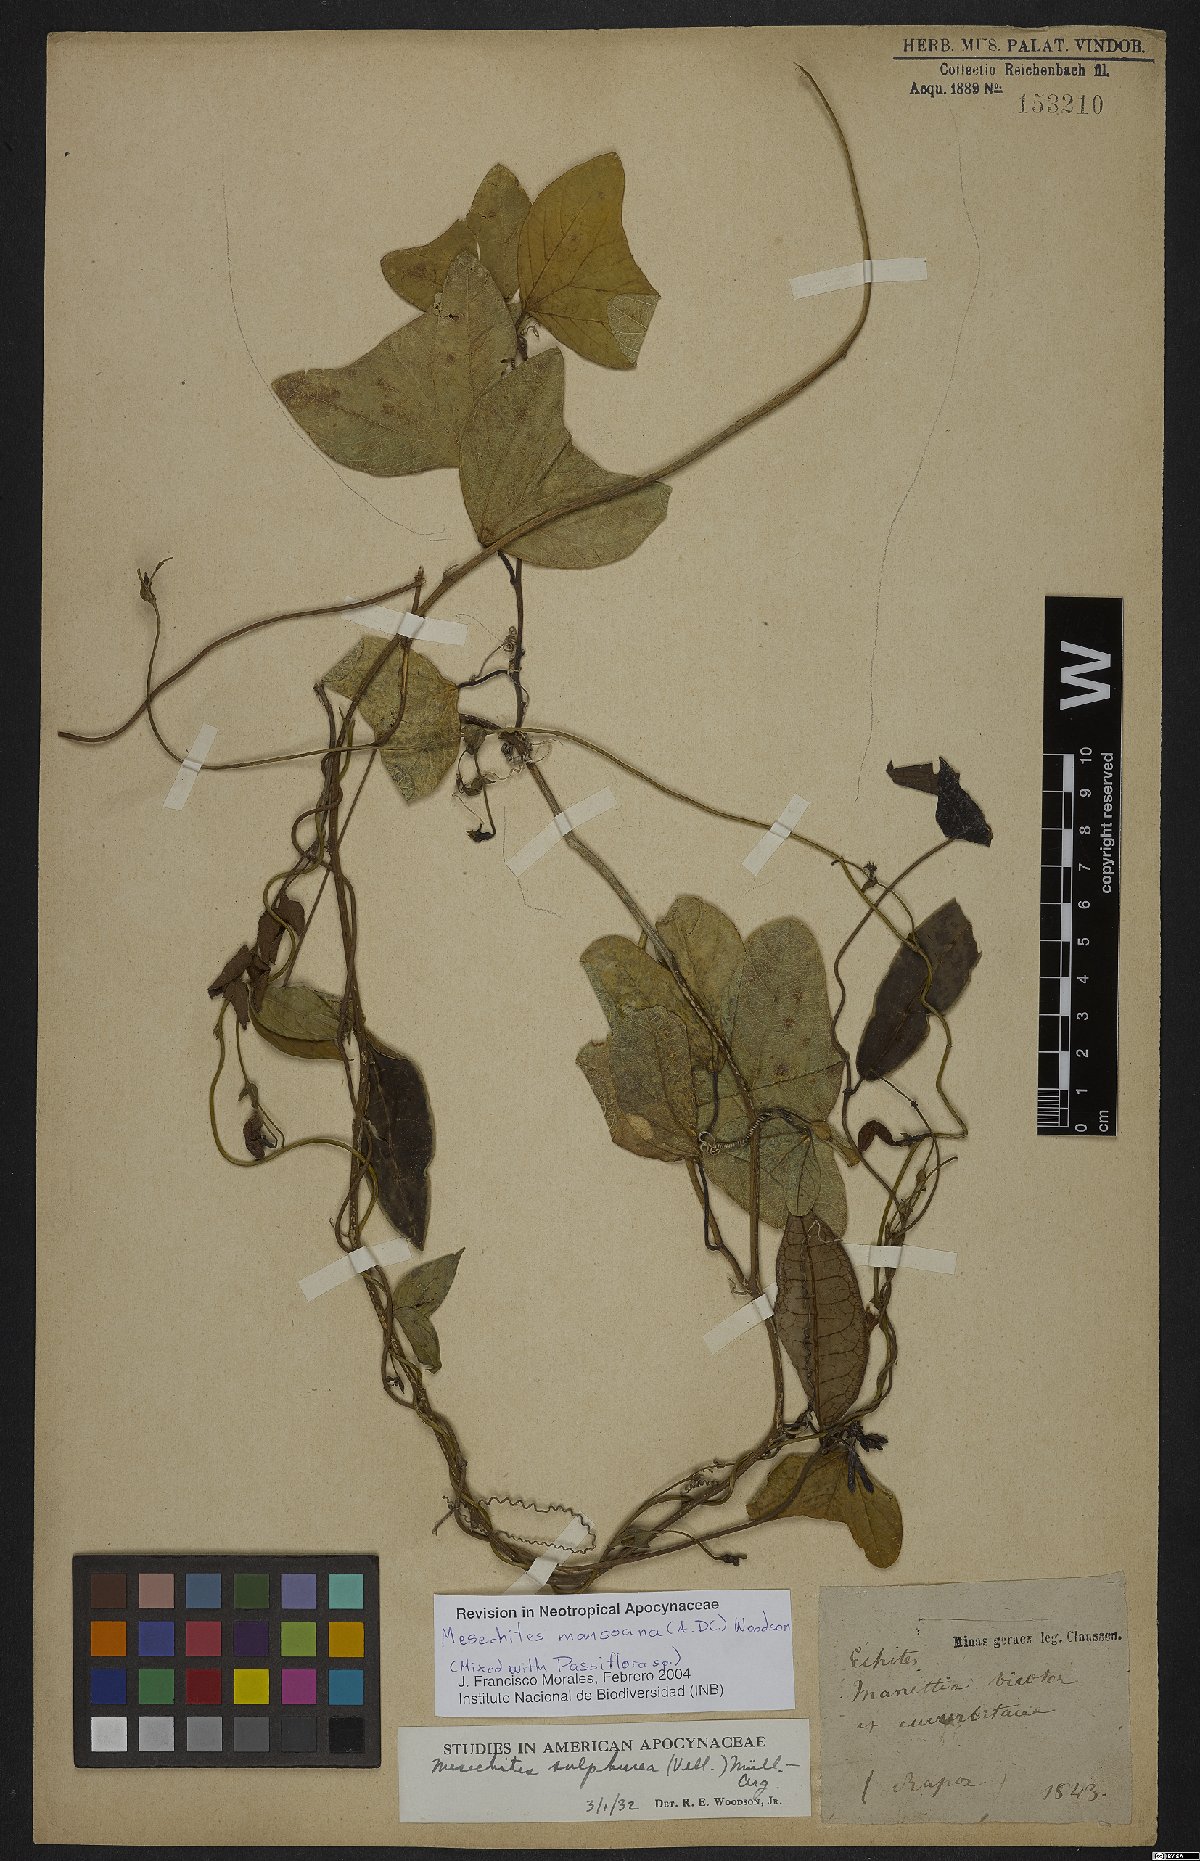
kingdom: Plantae
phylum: Tracheophyta
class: Magnoliopsida
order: Gentianales
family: Apocynaceae
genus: Mesechites
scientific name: Mesechites mansoanus
